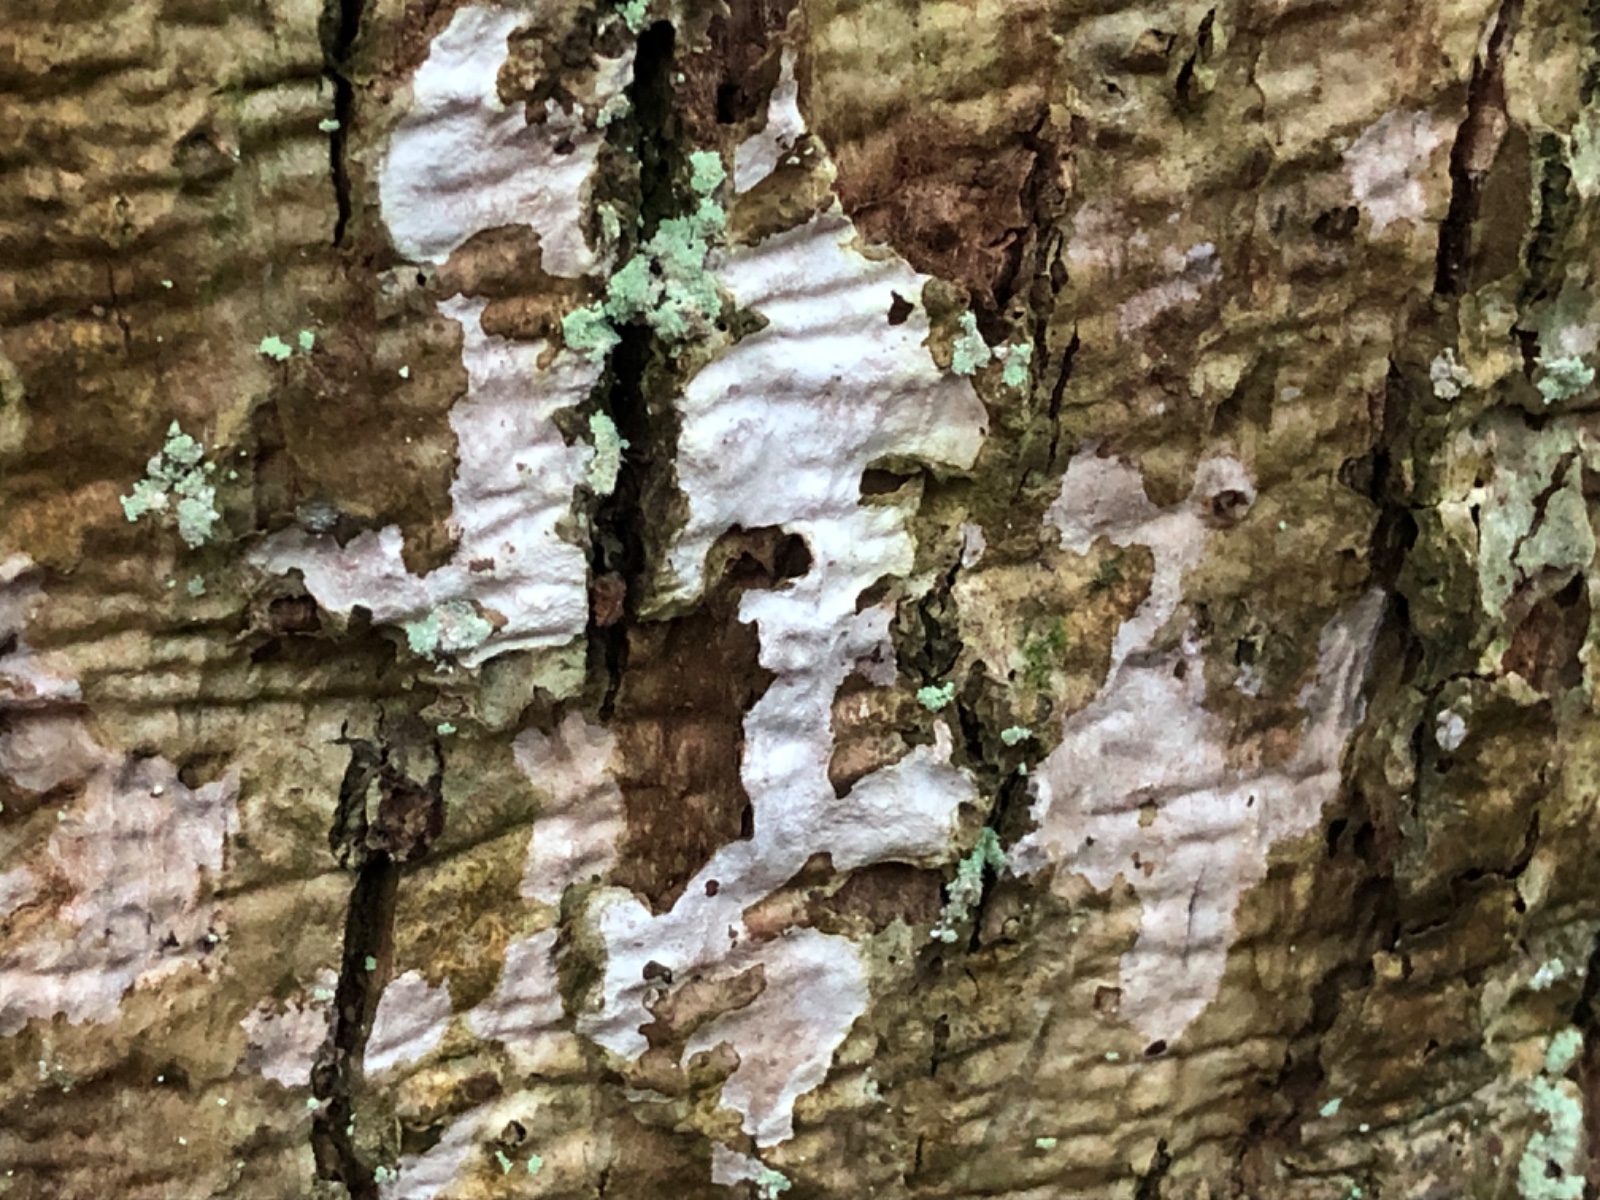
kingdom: Fungi
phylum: Basidiomycota
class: Agaricomycetes
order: Corticiales
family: Corticiaceae
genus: Dendrothele
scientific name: Dendrothele
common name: kalkplet
